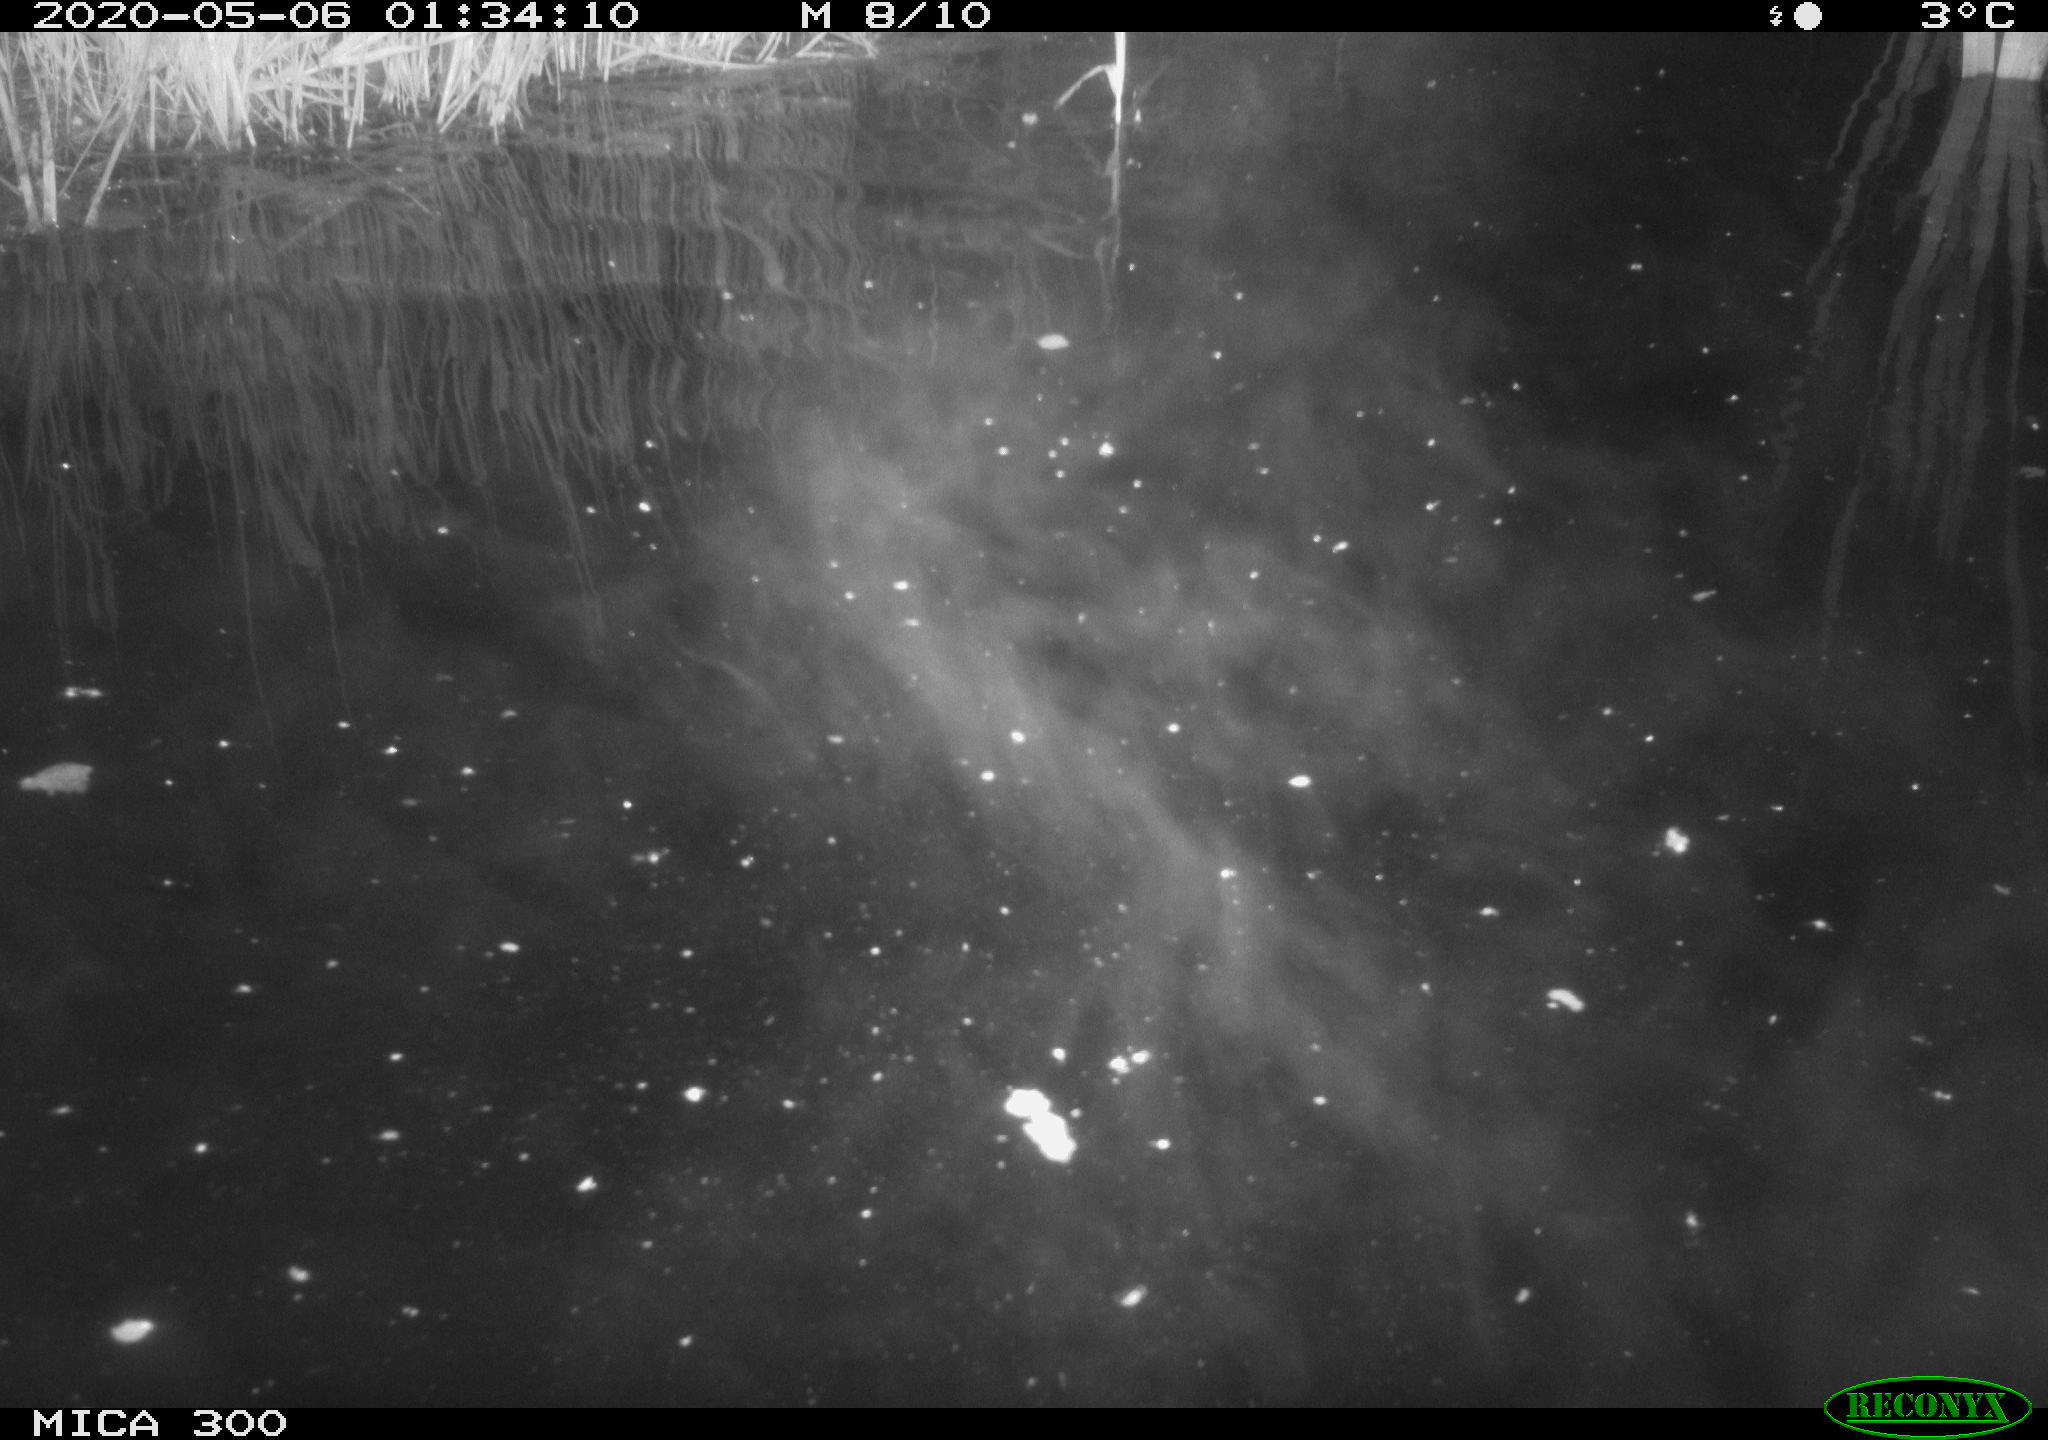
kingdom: Animalia
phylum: Chordata
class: Mammalia
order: Rodentia
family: Castoridae
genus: Castor
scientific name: Castor fiber
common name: Eurasian beaver
